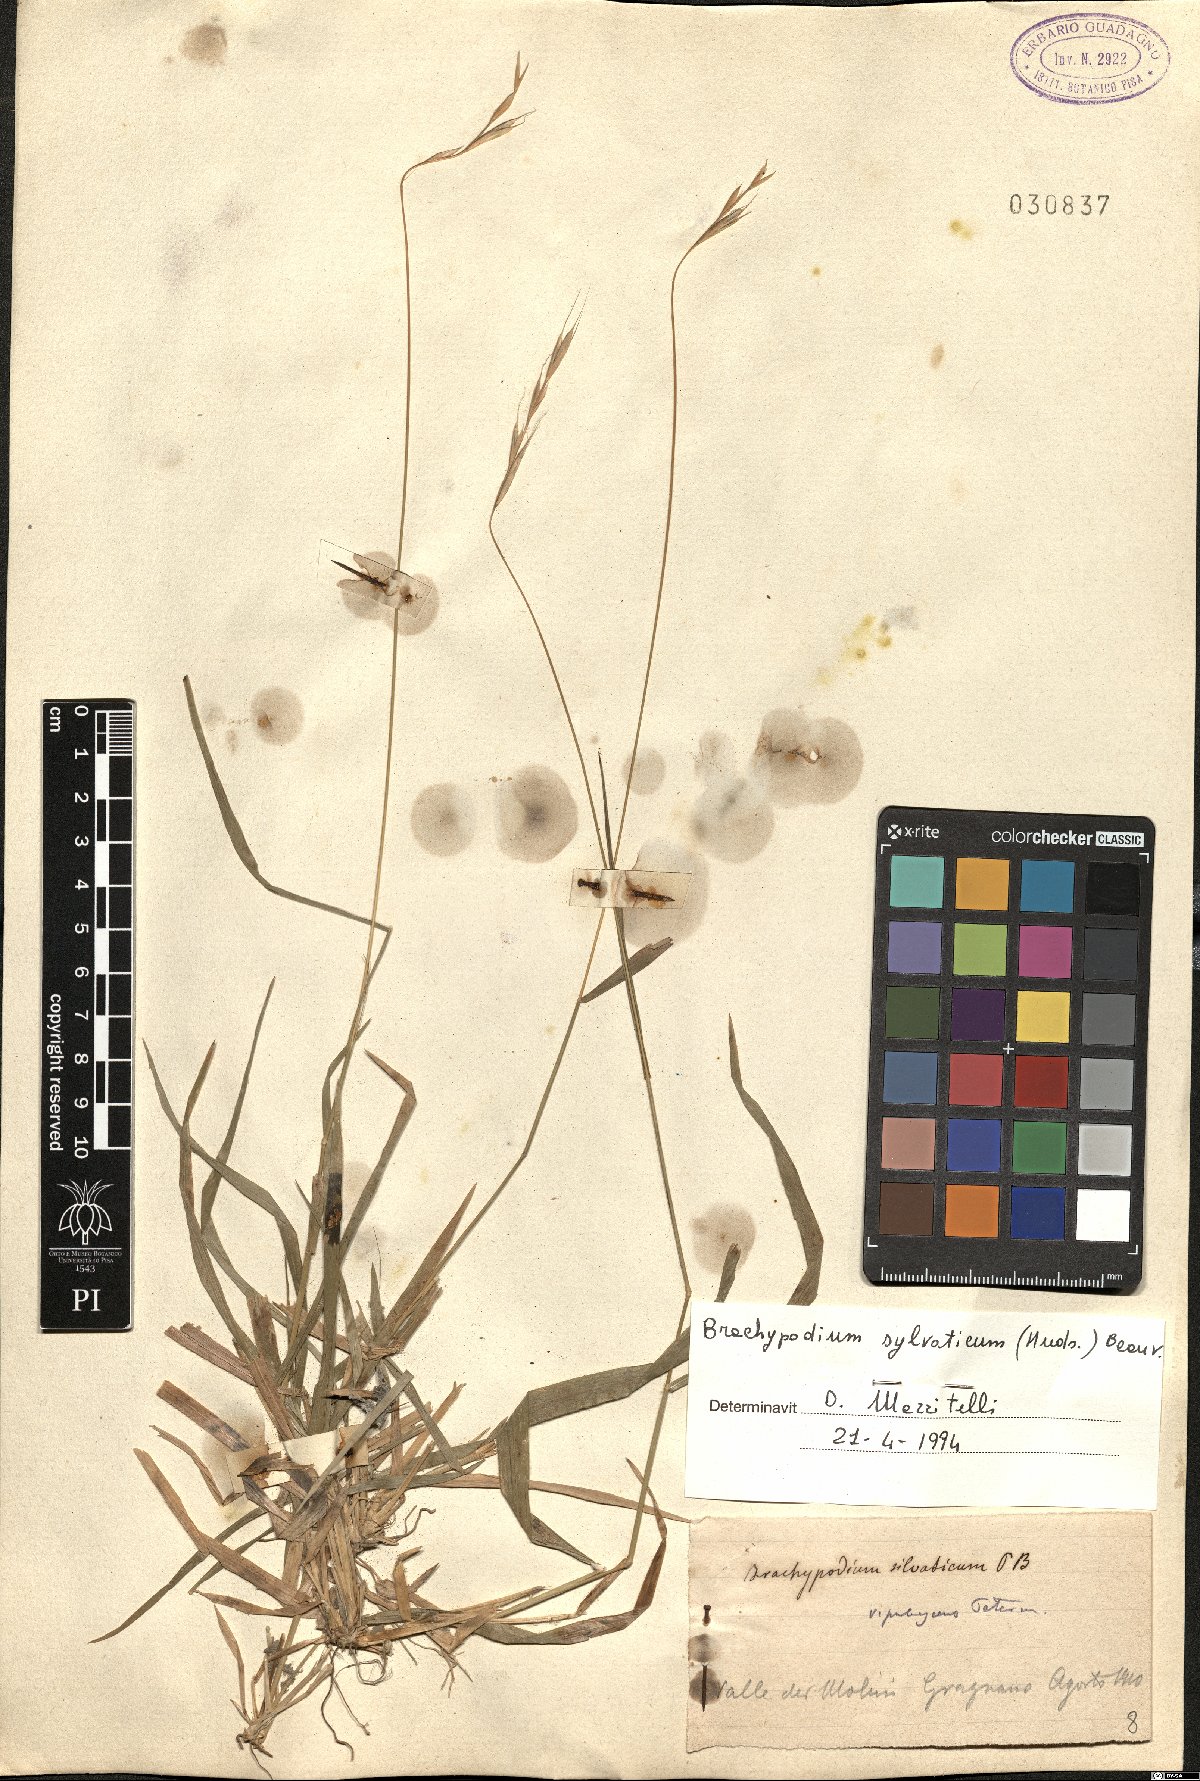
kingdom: Plantae
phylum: Tracheophyta
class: Liliopsida
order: Poales
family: Poaceae
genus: Brachypodium
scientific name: Brachypodium sylvaticum
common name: False-brome
